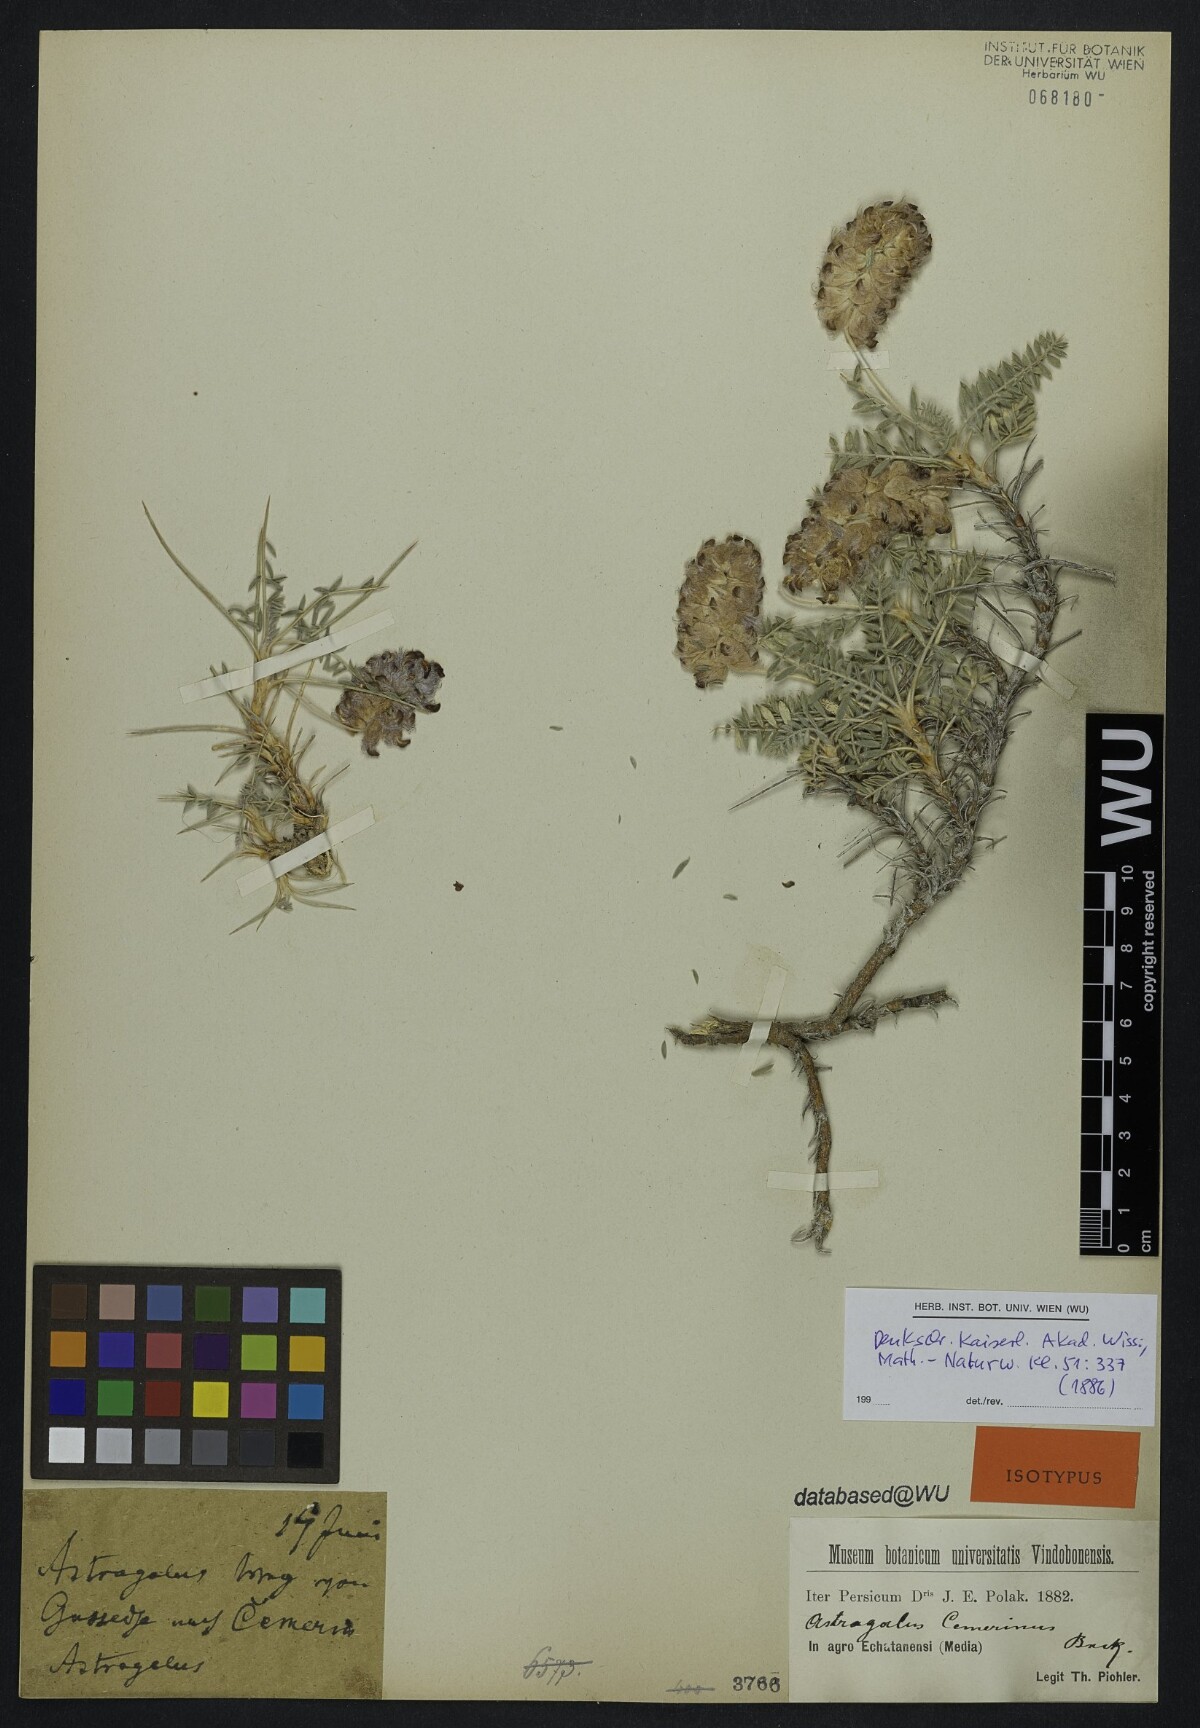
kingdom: Plantae
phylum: Tracheophyta
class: Magnoliopsida
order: Fabales
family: Fabaceae
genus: Astragalus
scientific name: Astragalus cemerinus
